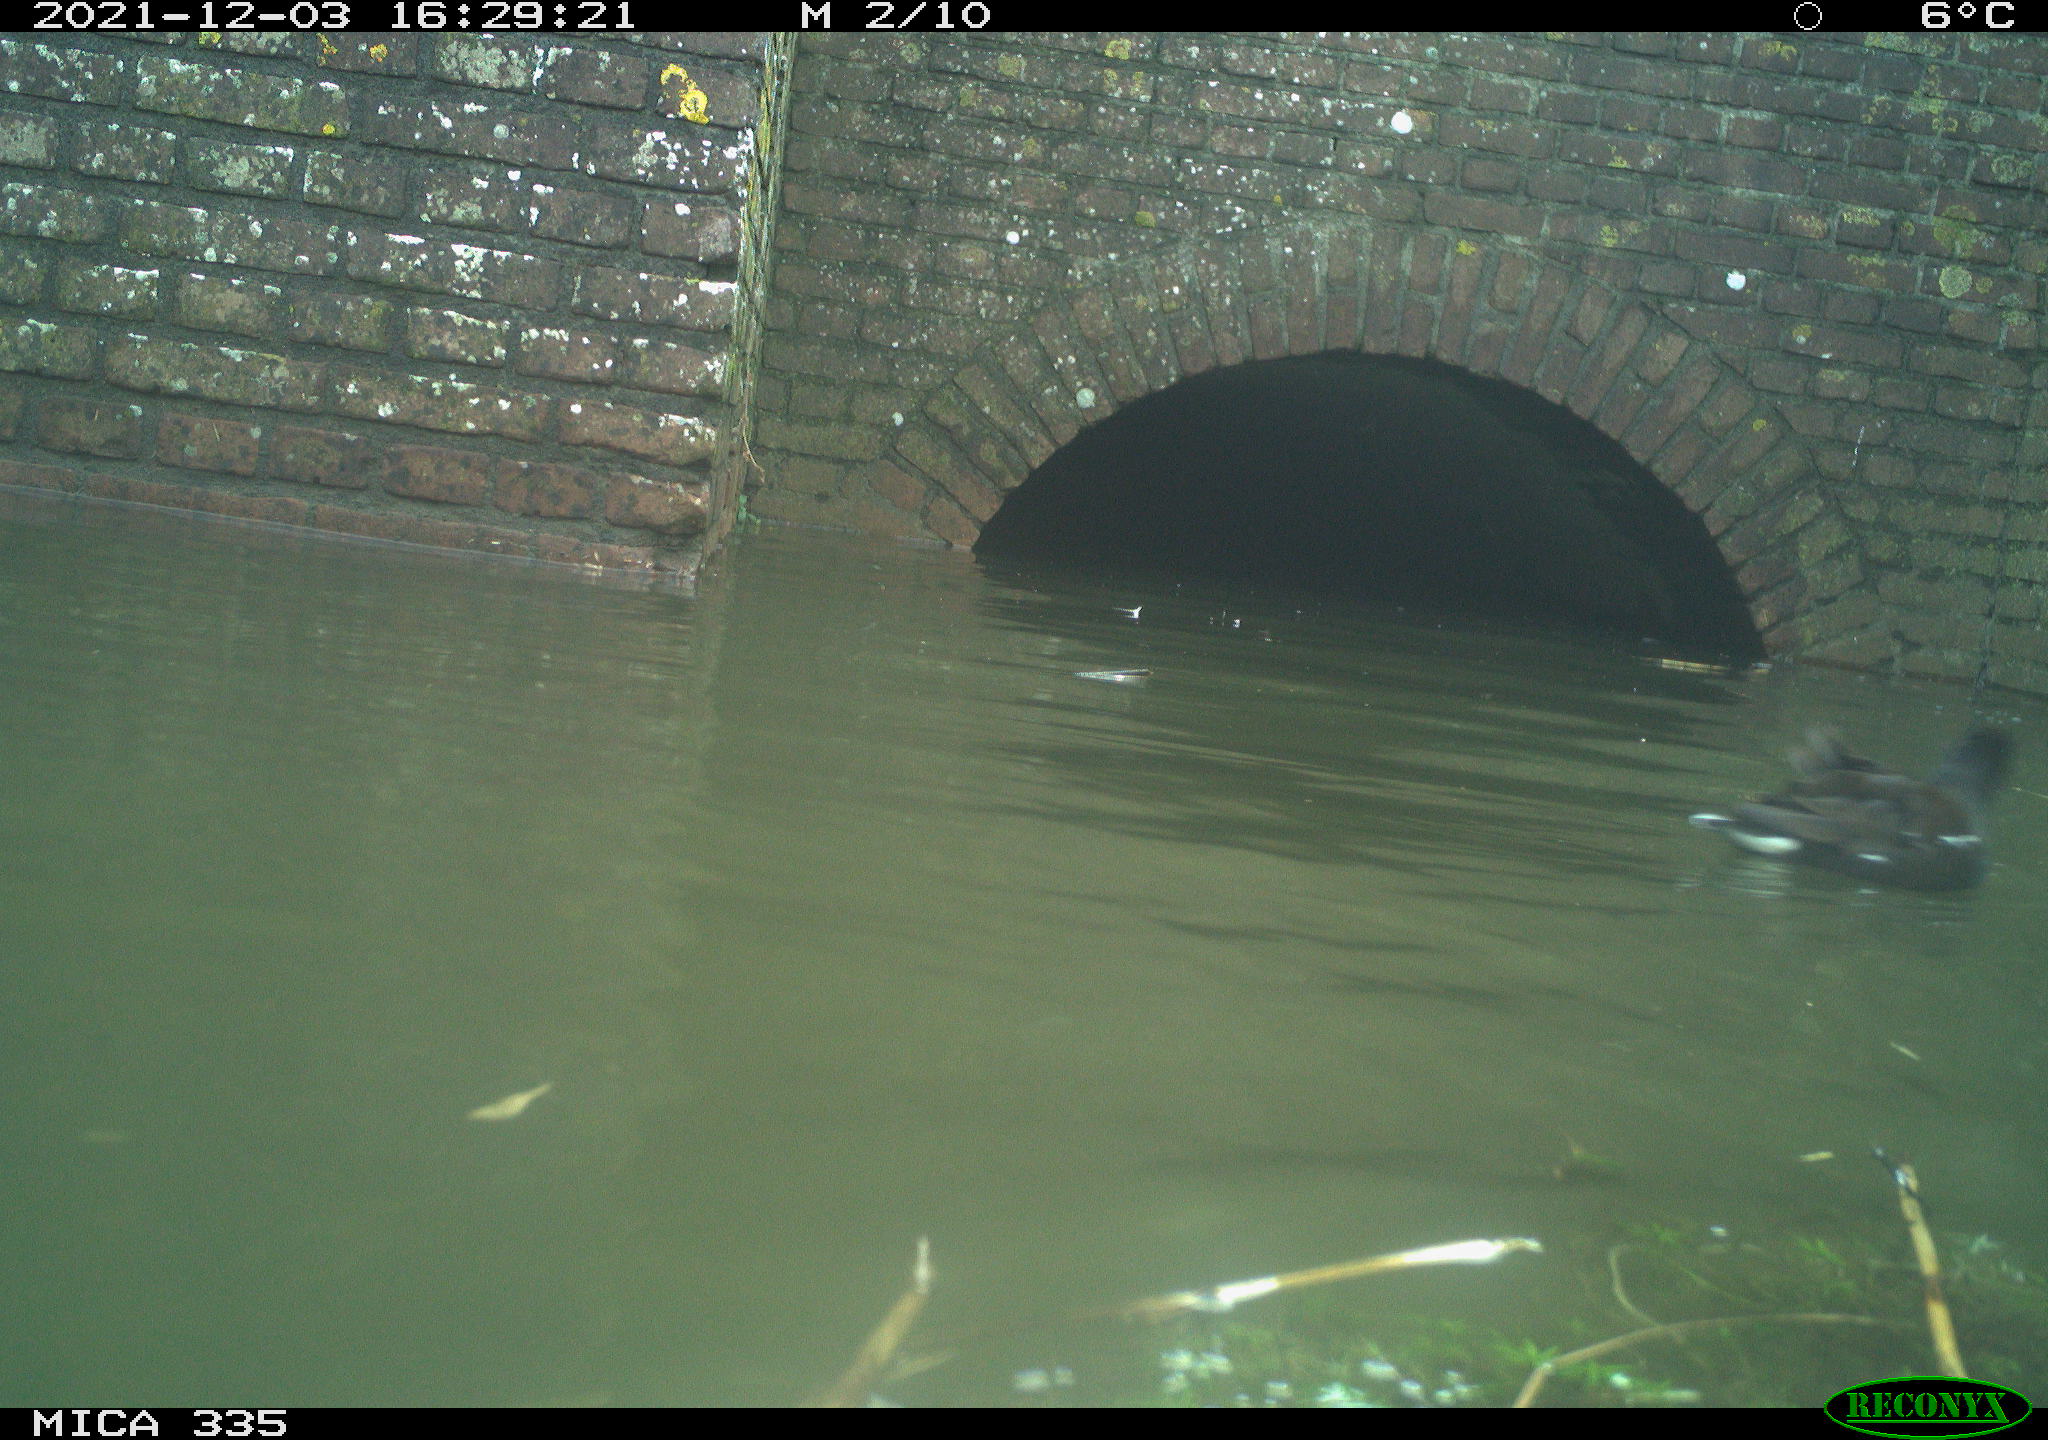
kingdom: Animalia
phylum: Chordata
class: Aves
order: Gruiformes
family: Rallidae
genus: Gallinula
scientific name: Gallinula chloropus
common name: Common moorhen
